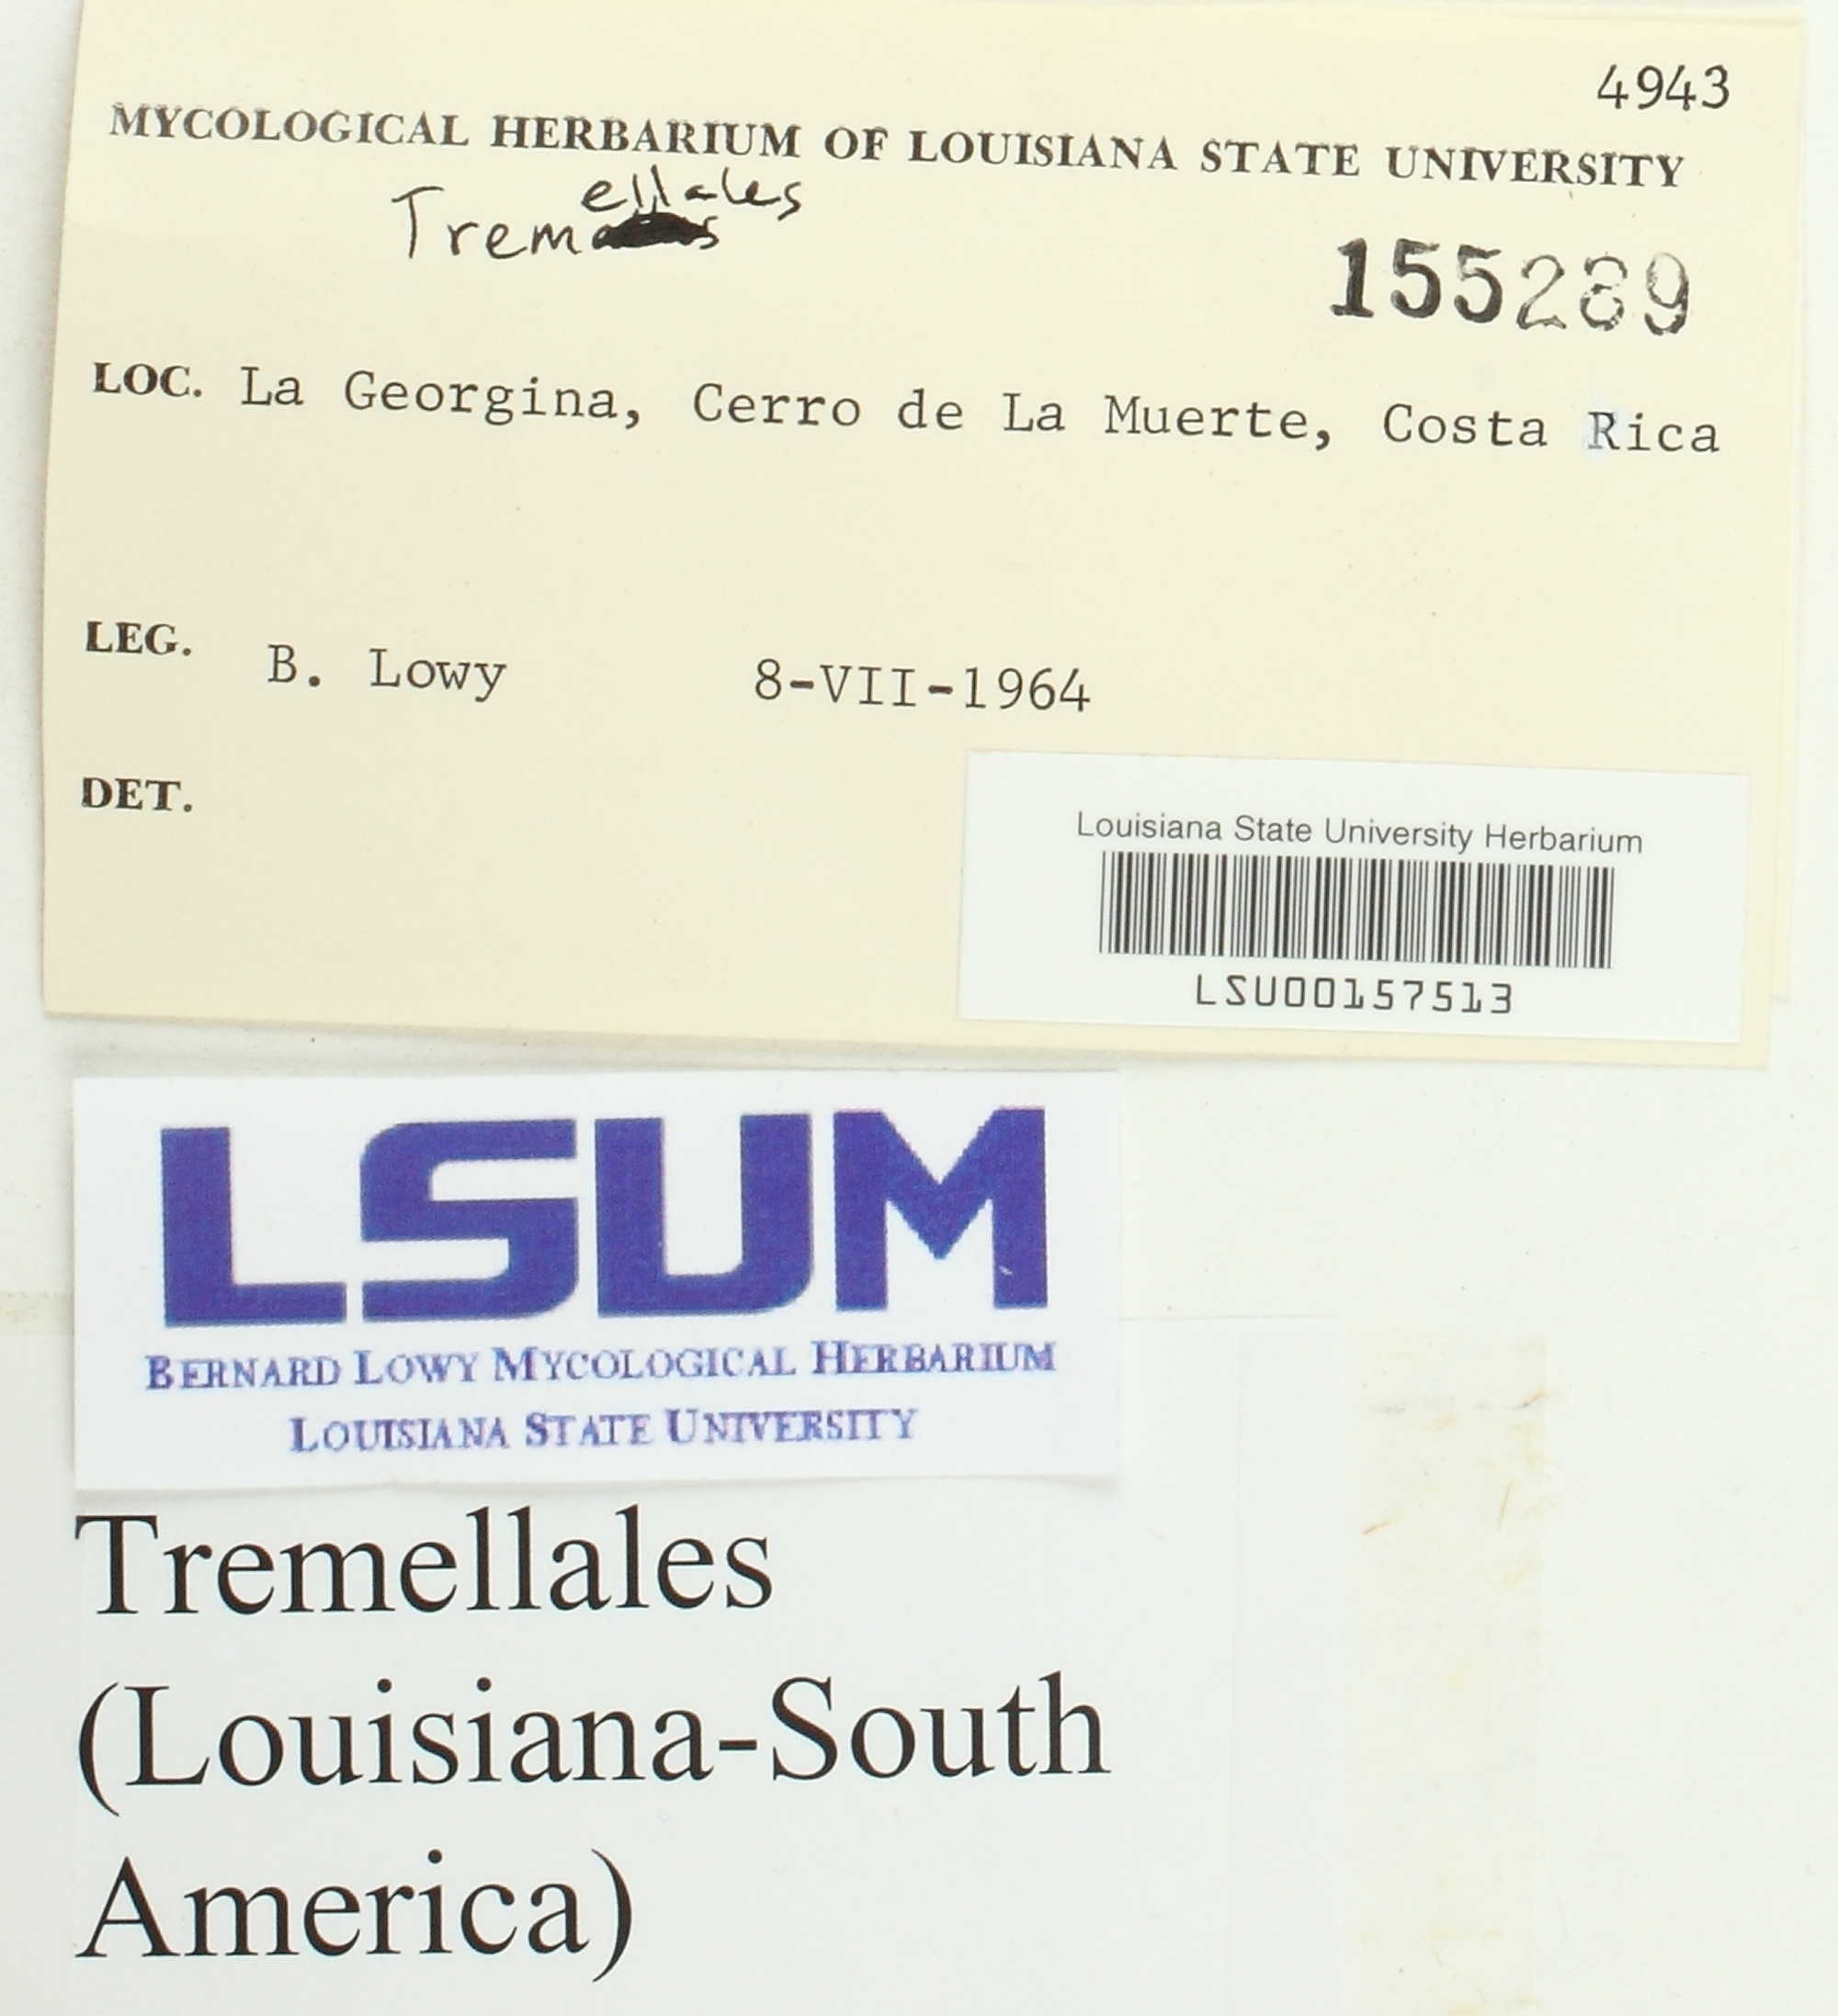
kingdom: Fungi
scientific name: Fungi
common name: Fungi
